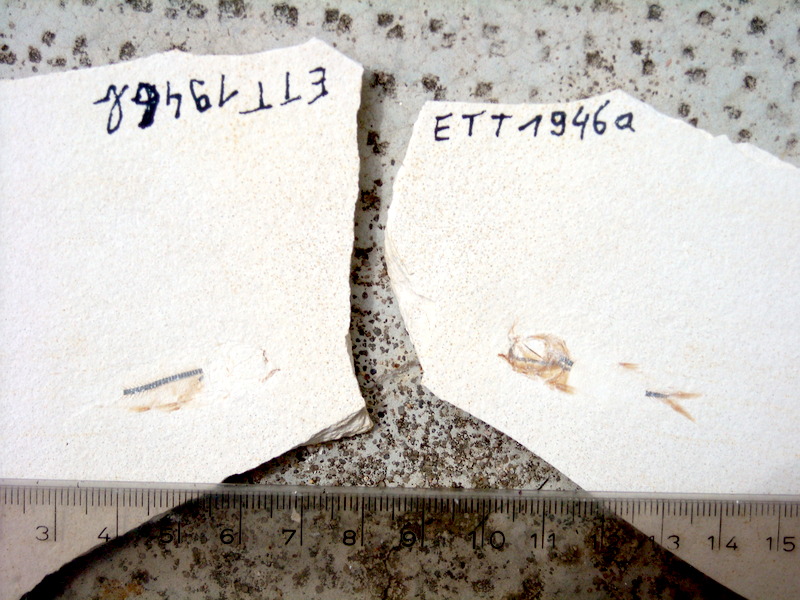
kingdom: Animalia
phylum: Chordata
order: Salmoniformes
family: Orthogonikleithridae
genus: Orthogonikleithrus
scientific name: Orthogonikleithrus hoelli
